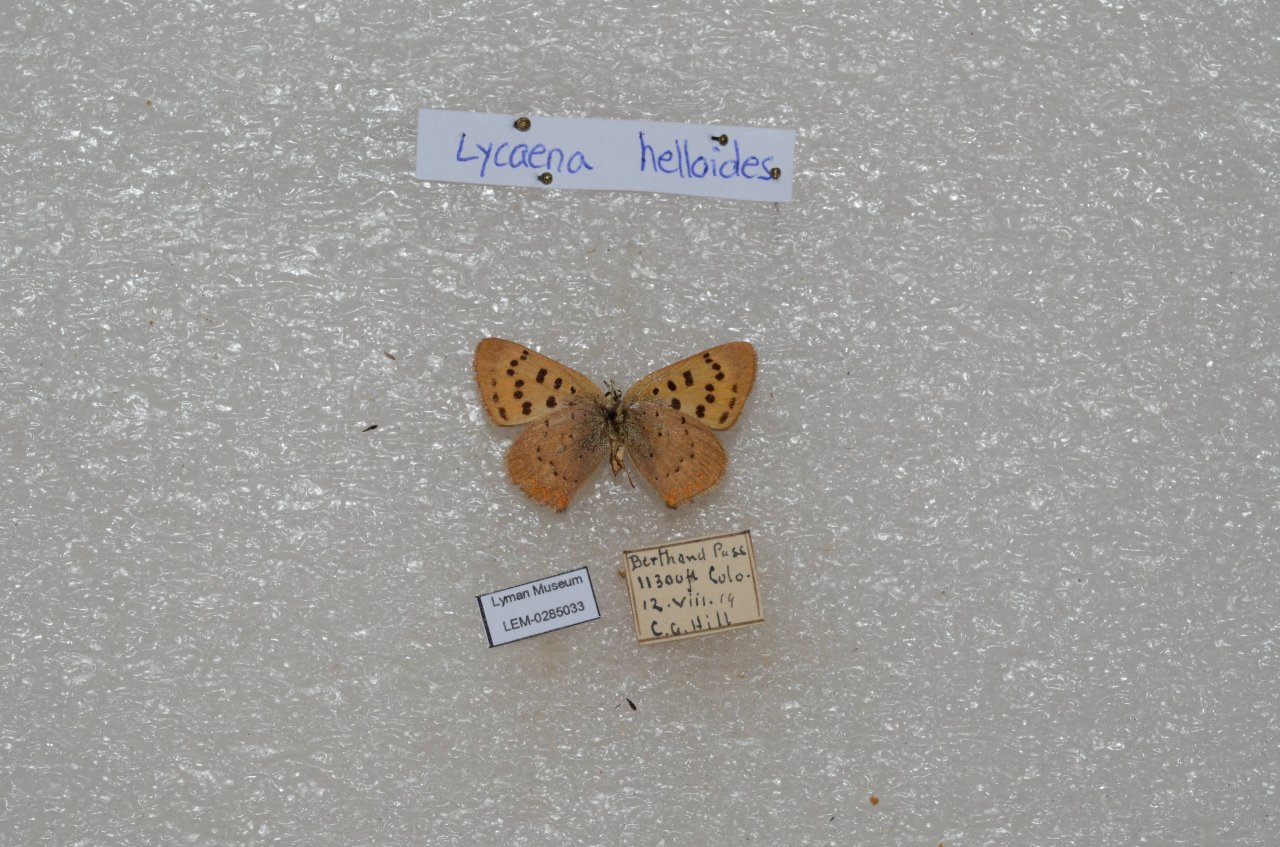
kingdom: Animalia
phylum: Arthropoda
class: Insecta
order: Lepidoptera
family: Sesiidae
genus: Sesia
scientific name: Sesia Lycaena helloides
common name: Purplish Copper
